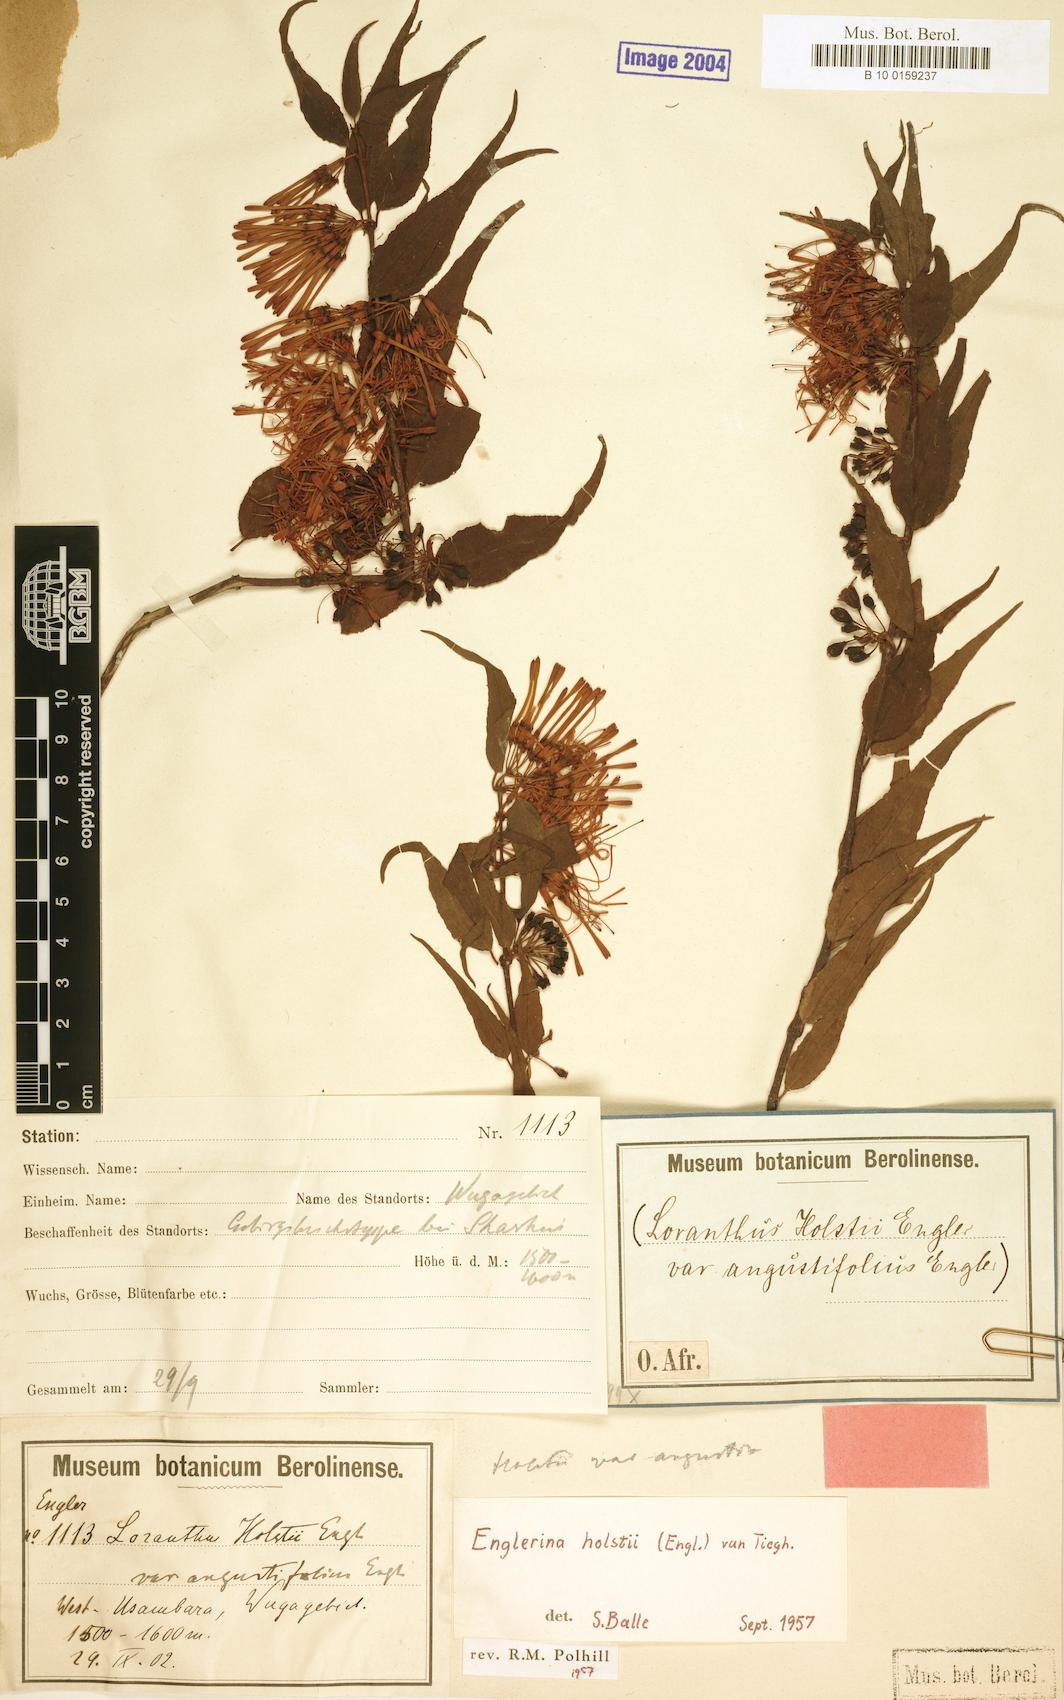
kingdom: Plantae
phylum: Tracheophyta
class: Magnoliopsida
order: Santalales
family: Loranthaceae
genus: Englerina
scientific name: Englerina holstii
